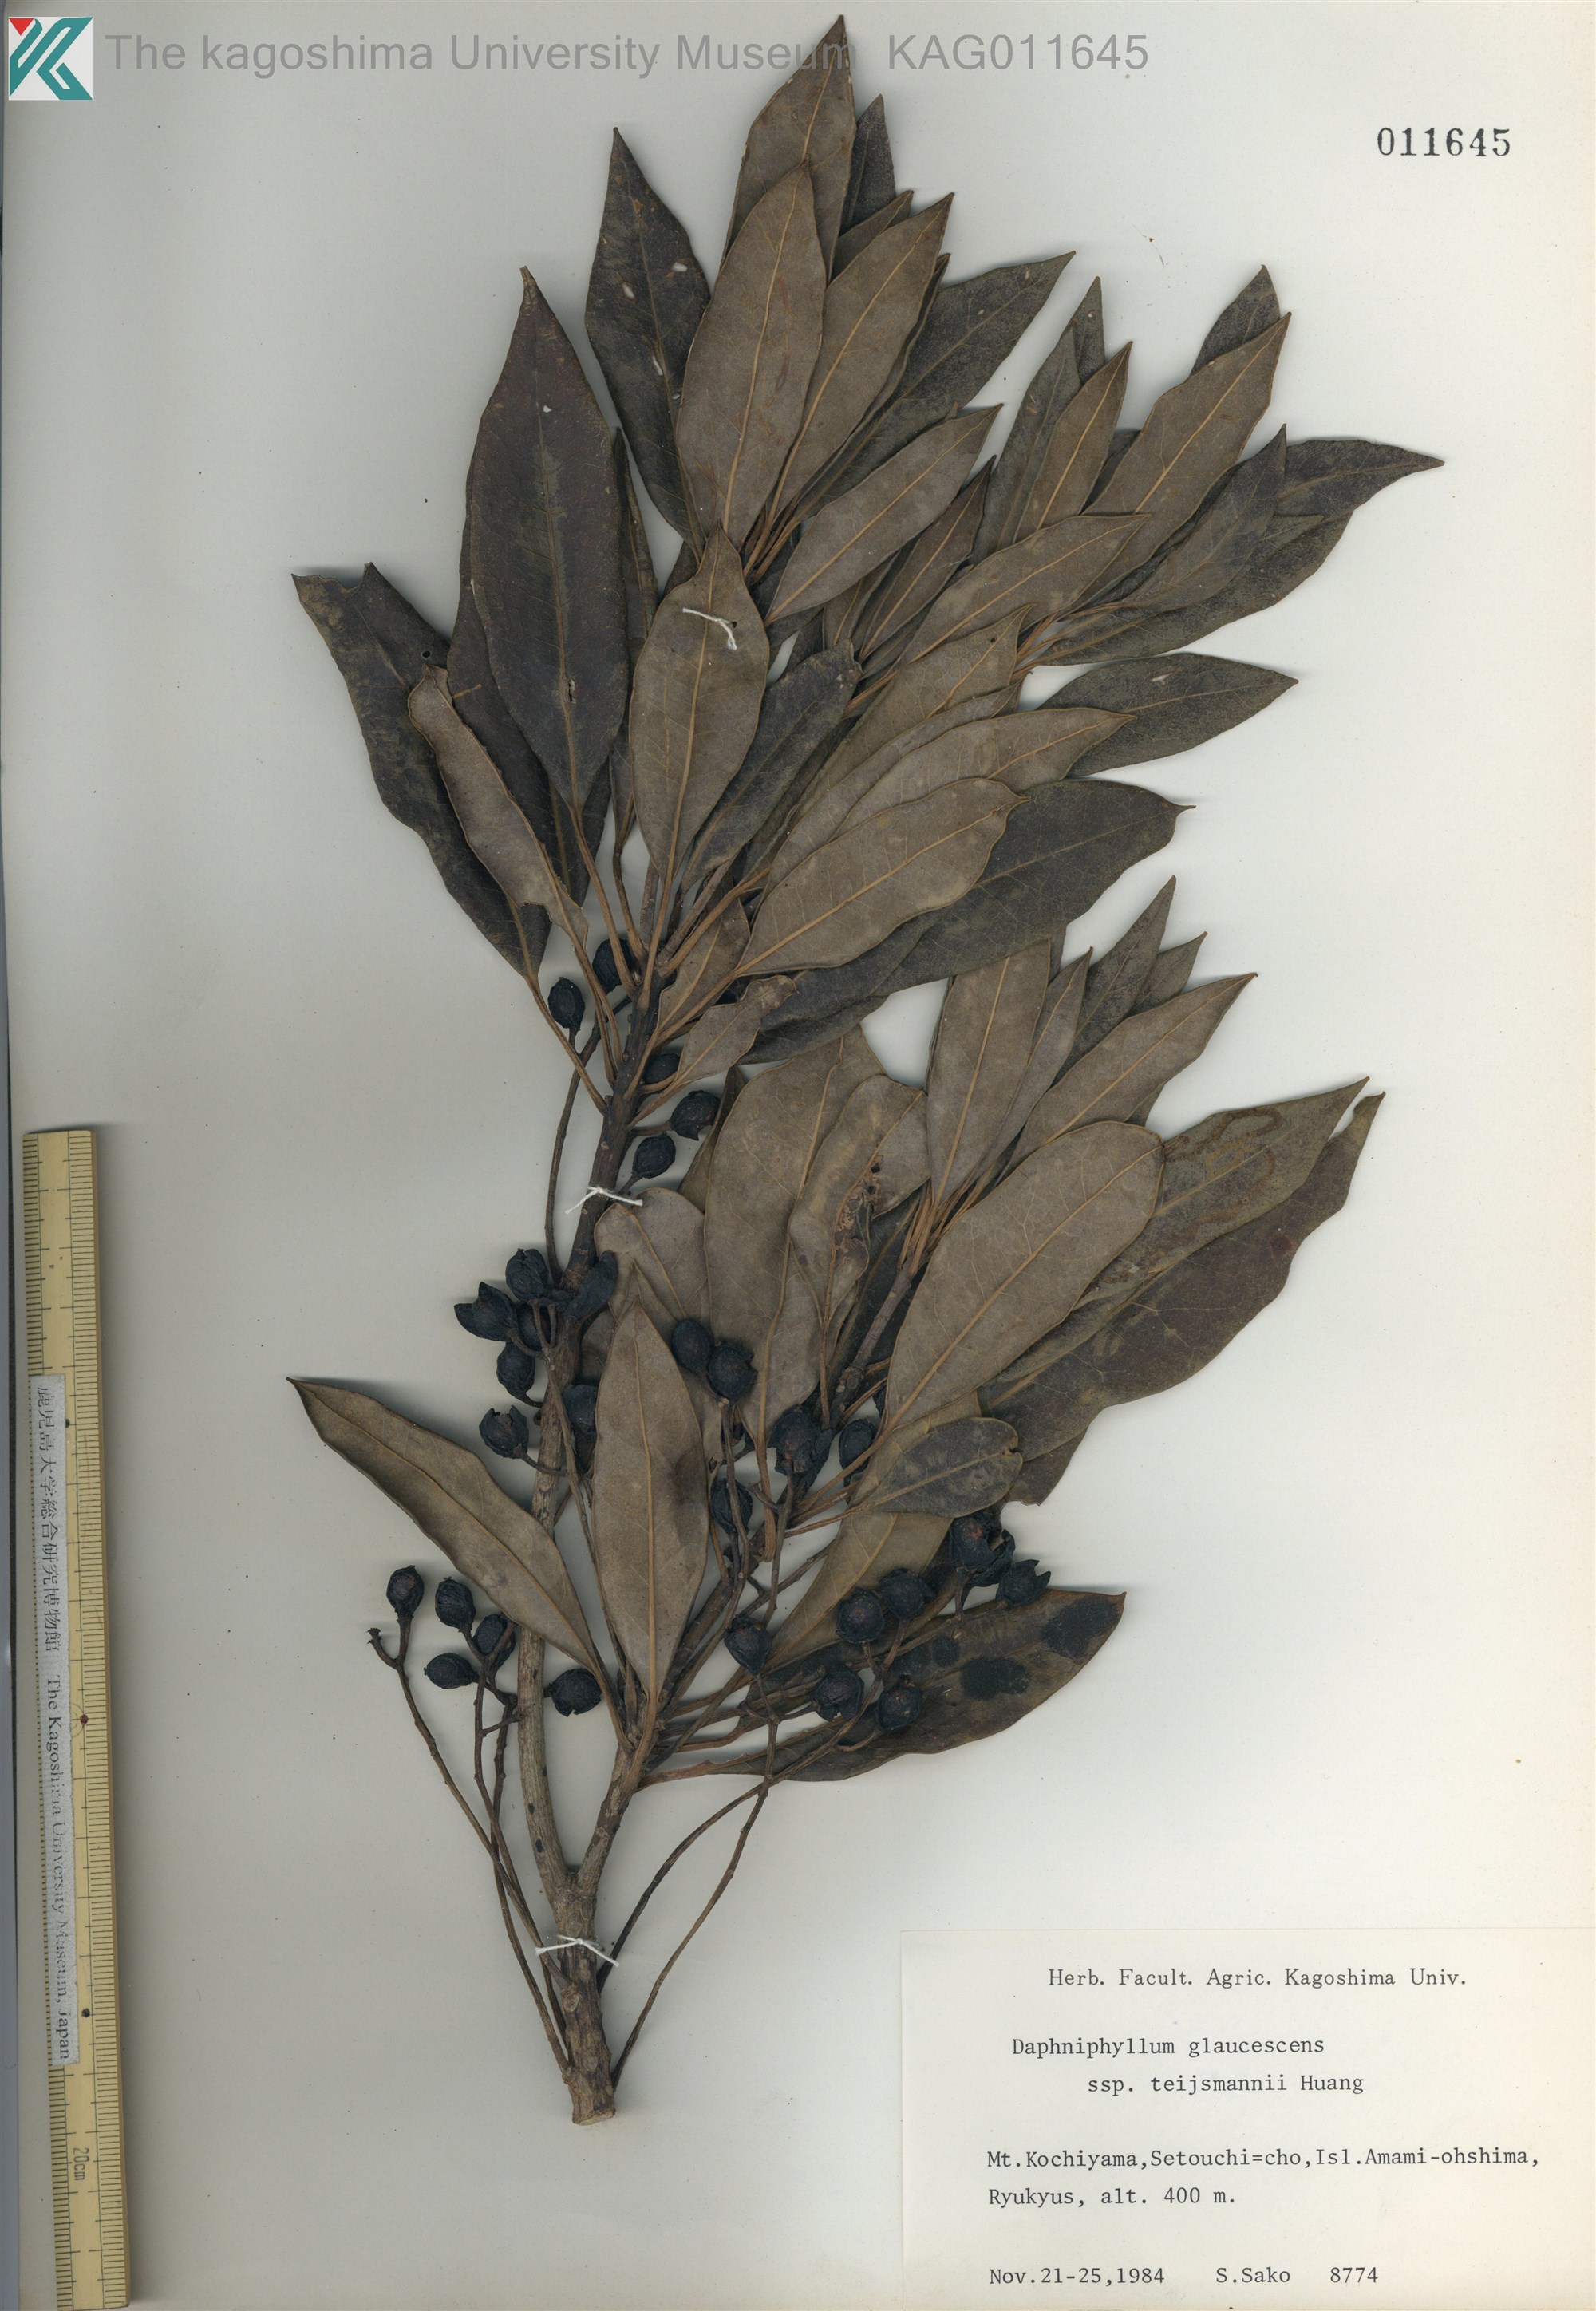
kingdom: Plantae
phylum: Tracheophyta
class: Magnoliopsida
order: Saxifragales
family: Daphniphyllaceae
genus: Daphniphyllum
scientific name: Daphniphyllum teijsmannii
